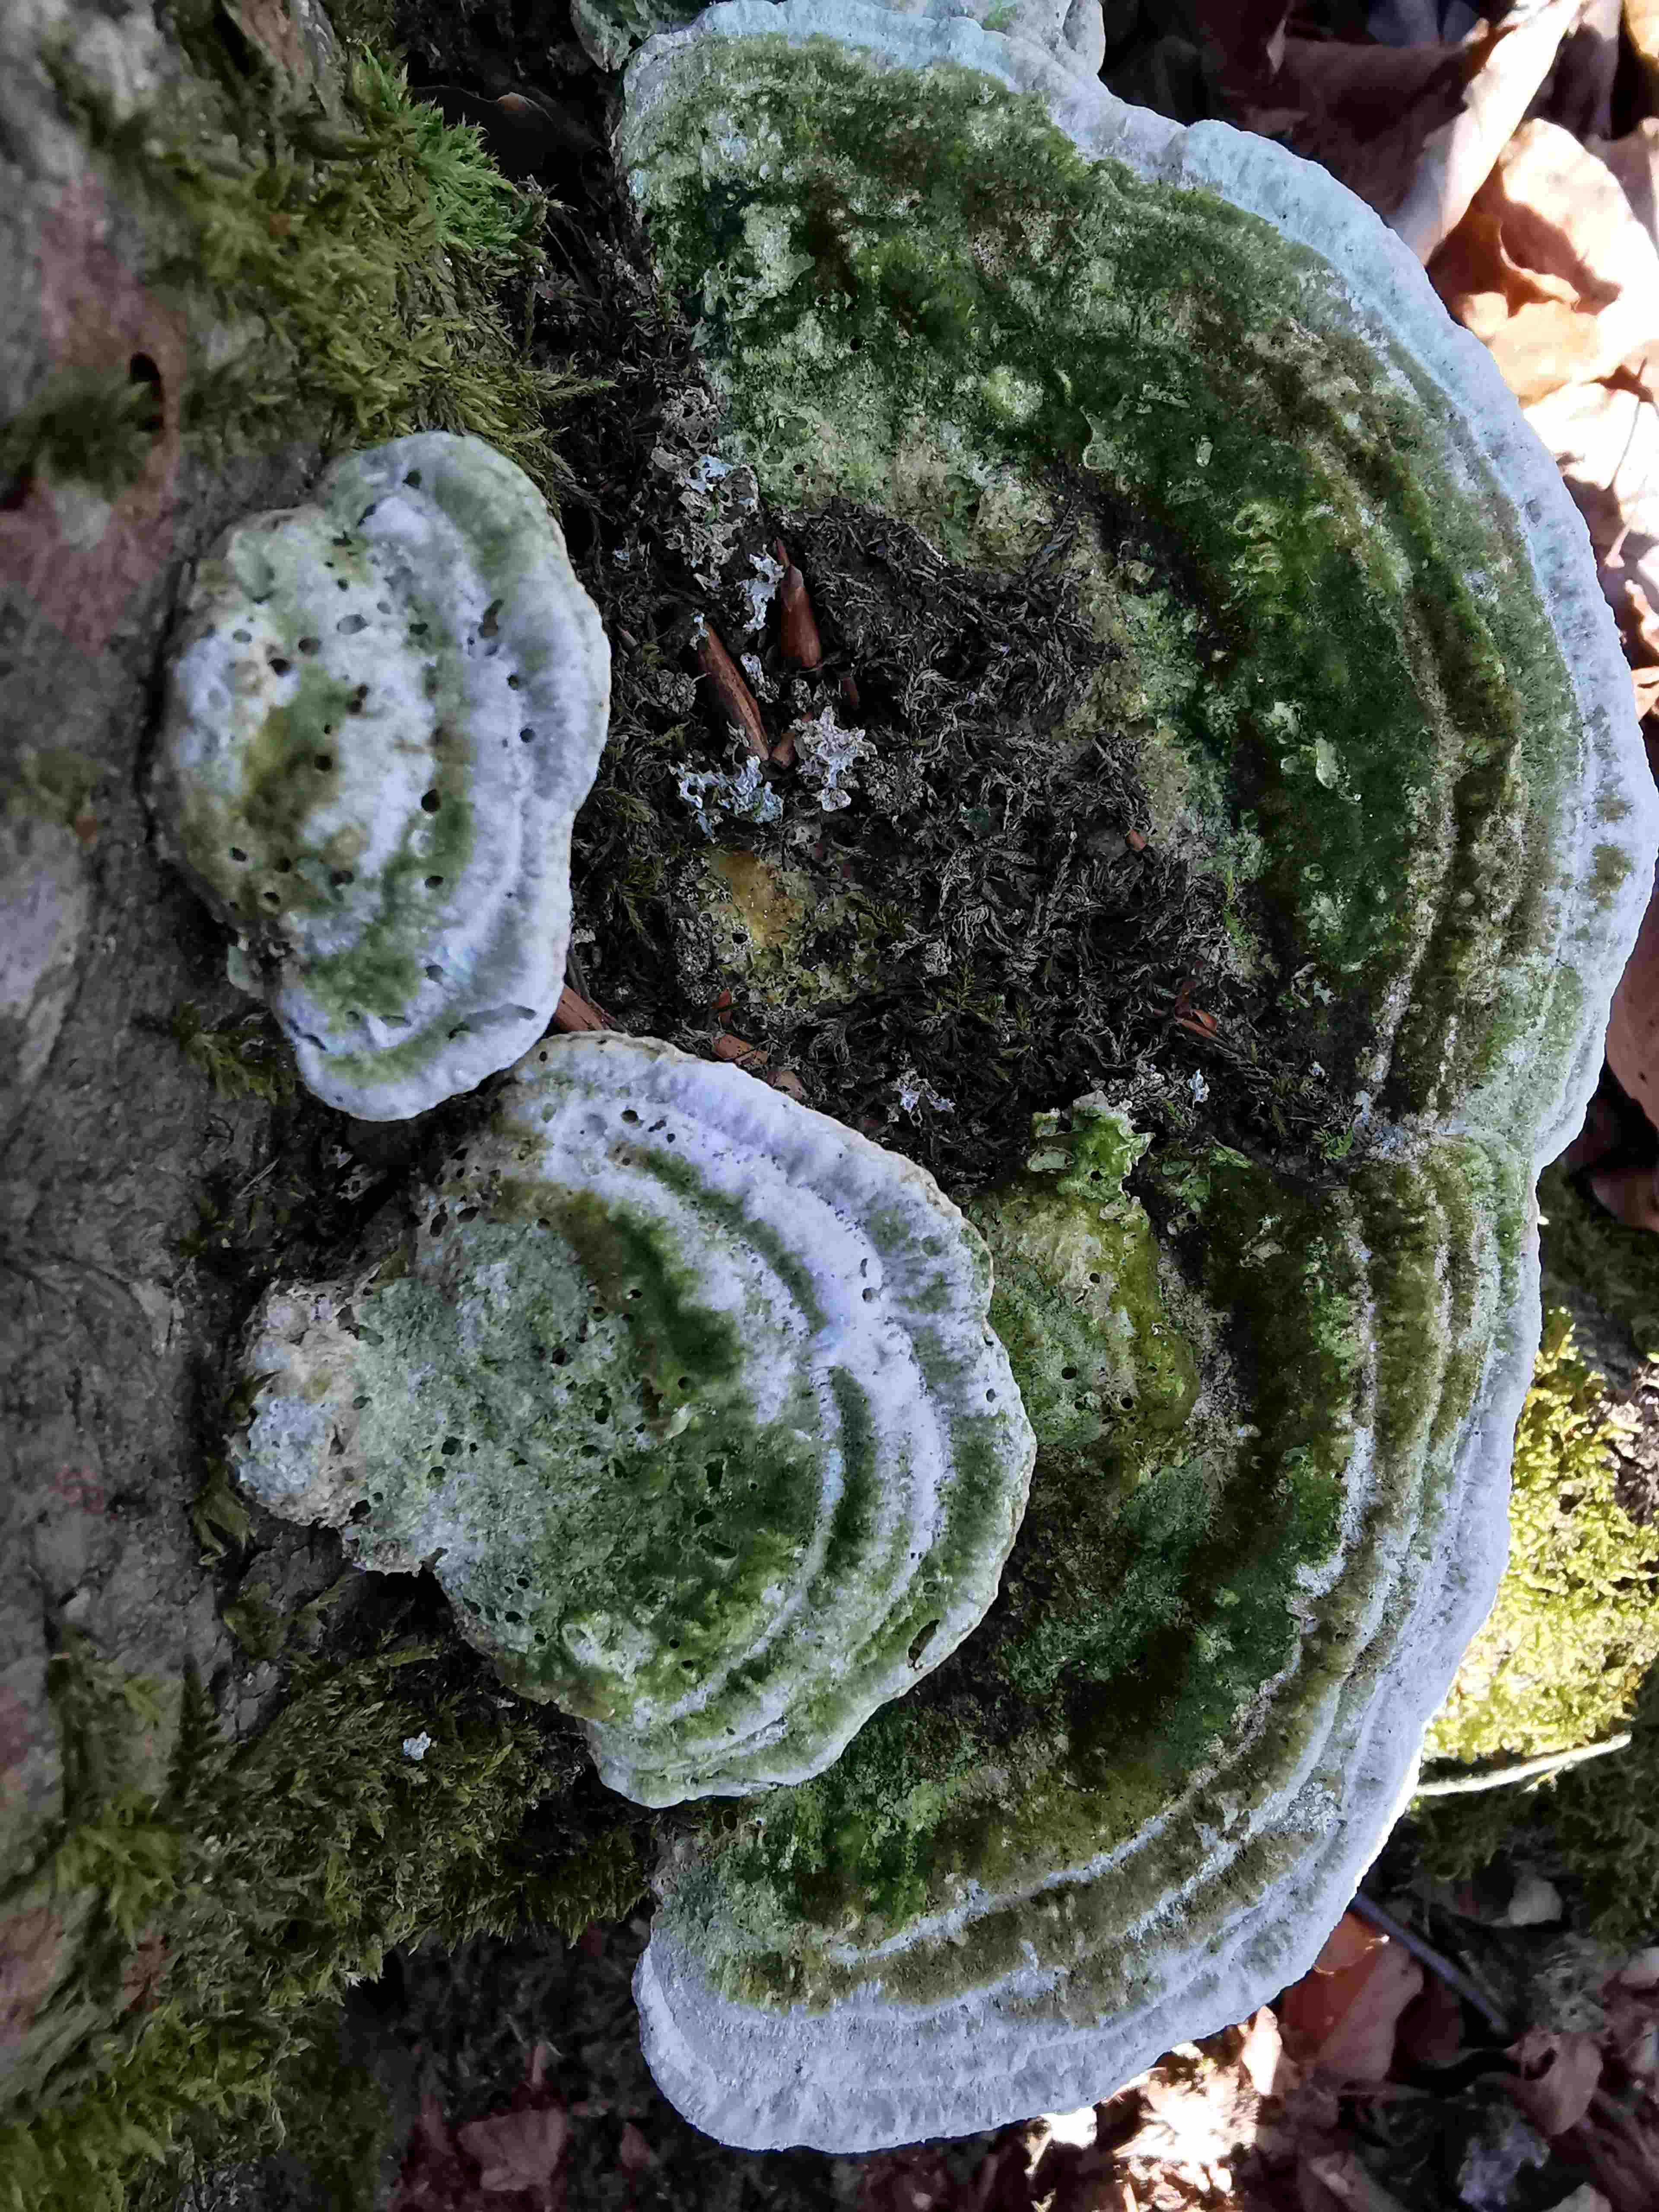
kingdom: Fungi
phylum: Basidiomycota
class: Agaricomycetes
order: Polyporales
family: Polyporaceae
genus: Trametes
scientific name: Trametes gibbosa
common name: puklet læderporesvamp
